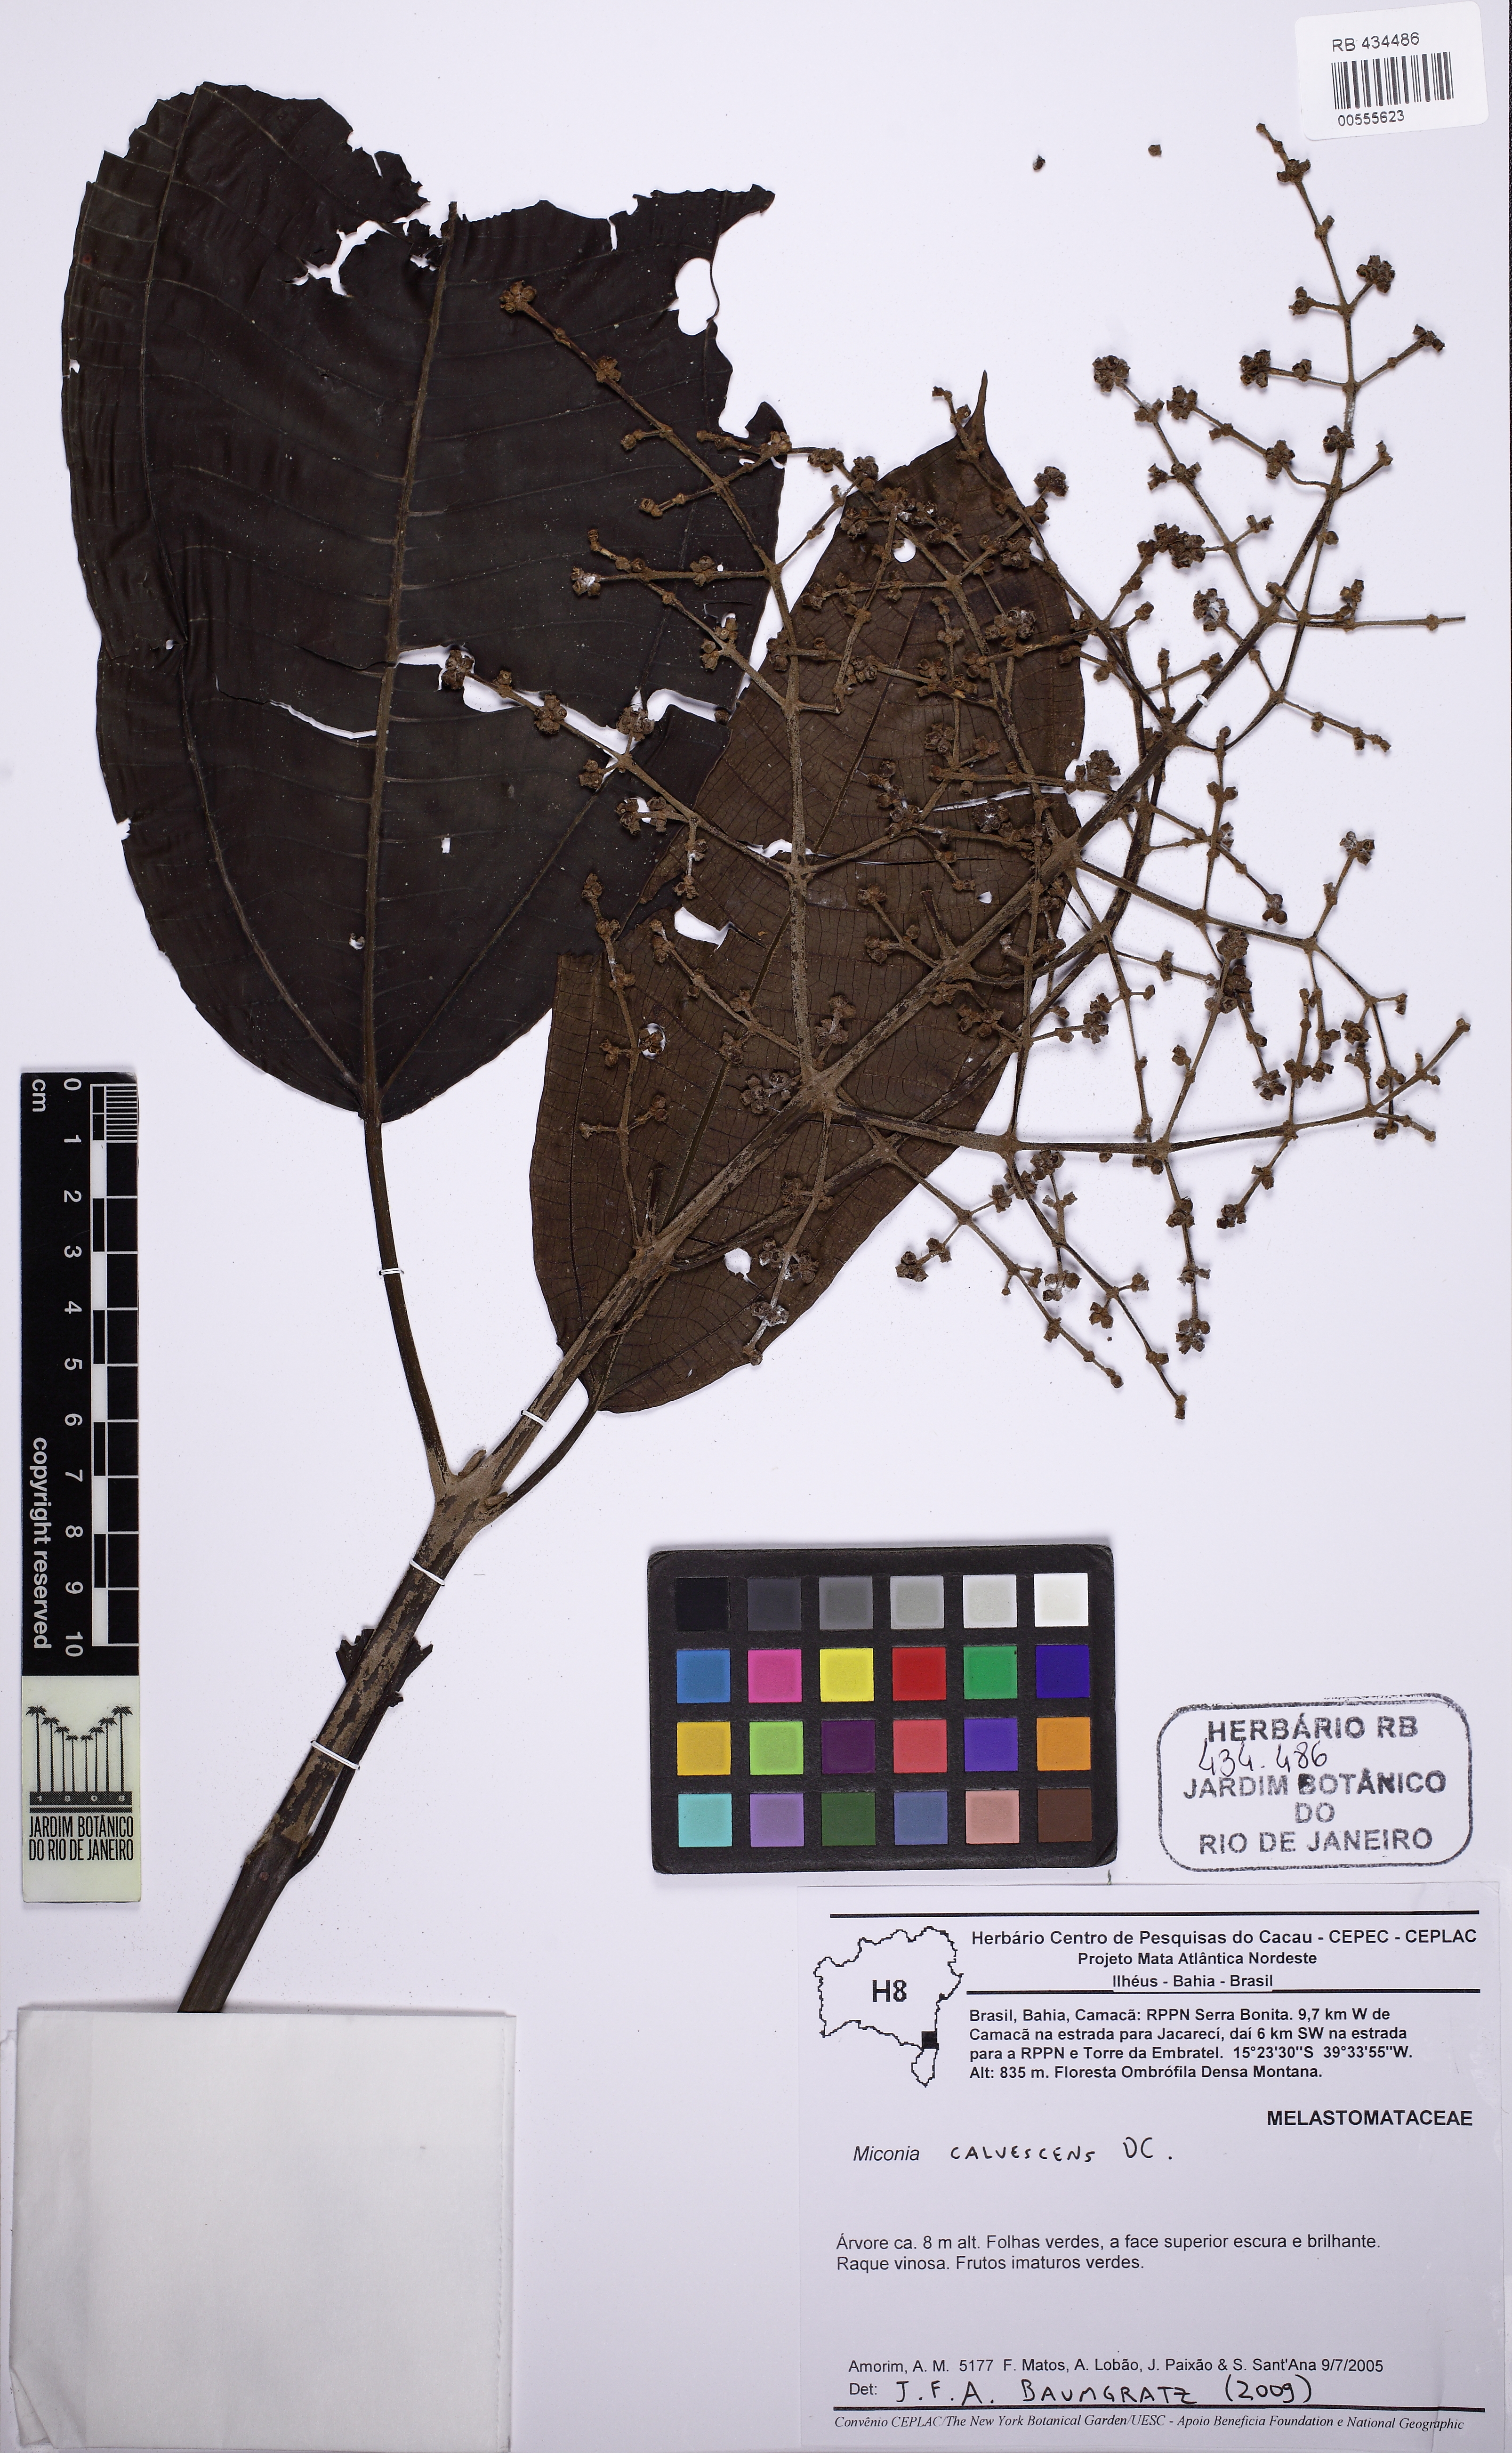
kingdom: Plantae
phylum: Tracheophyta
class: Magnoliopsida
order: Myrtales
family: Melastomataceae
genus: Miconia
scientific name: Miconia calvescens
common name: Purple plague
